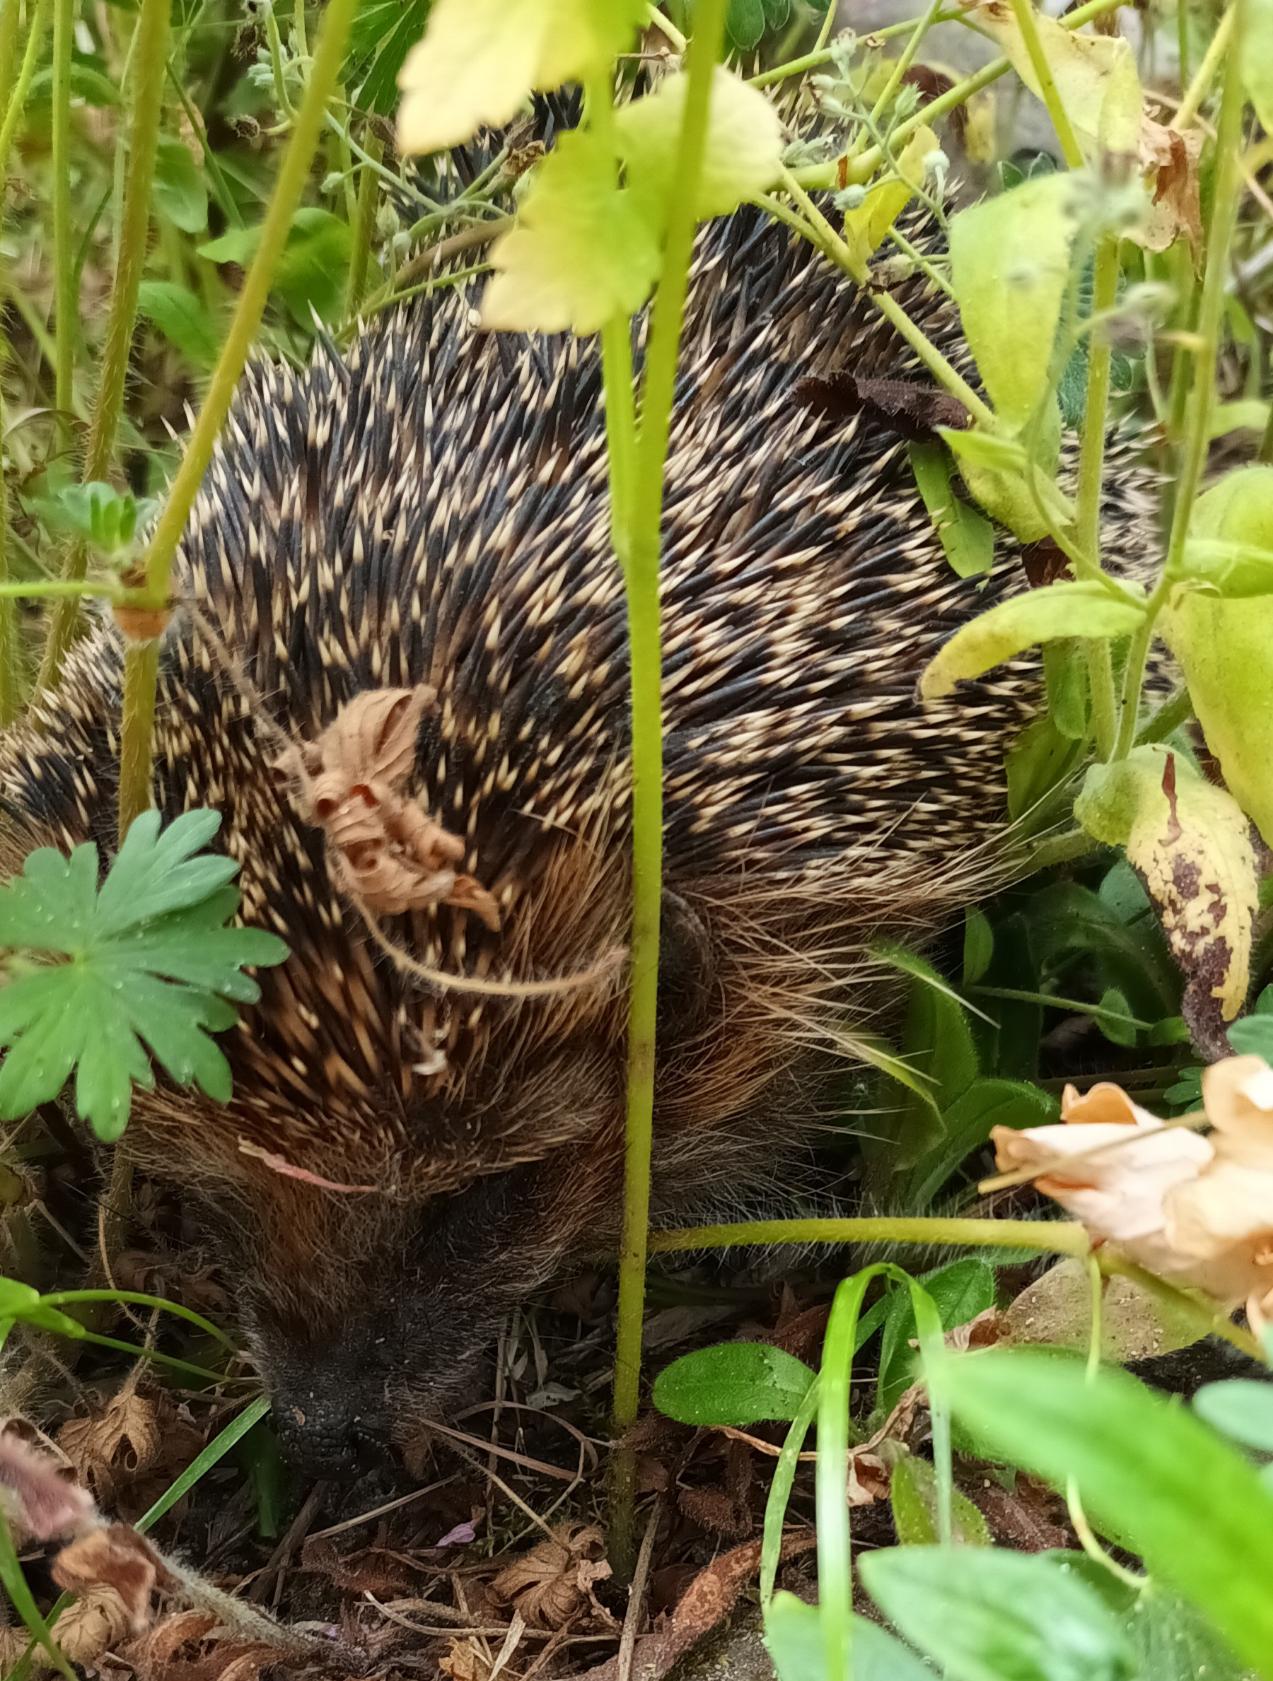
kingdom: Animalia
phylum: Chordata
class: Mammalia
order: Erinaceomorpha
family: Erinaceidae
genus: Erinaceus
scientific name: Erinaceus europaeus
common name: Pindsvin
